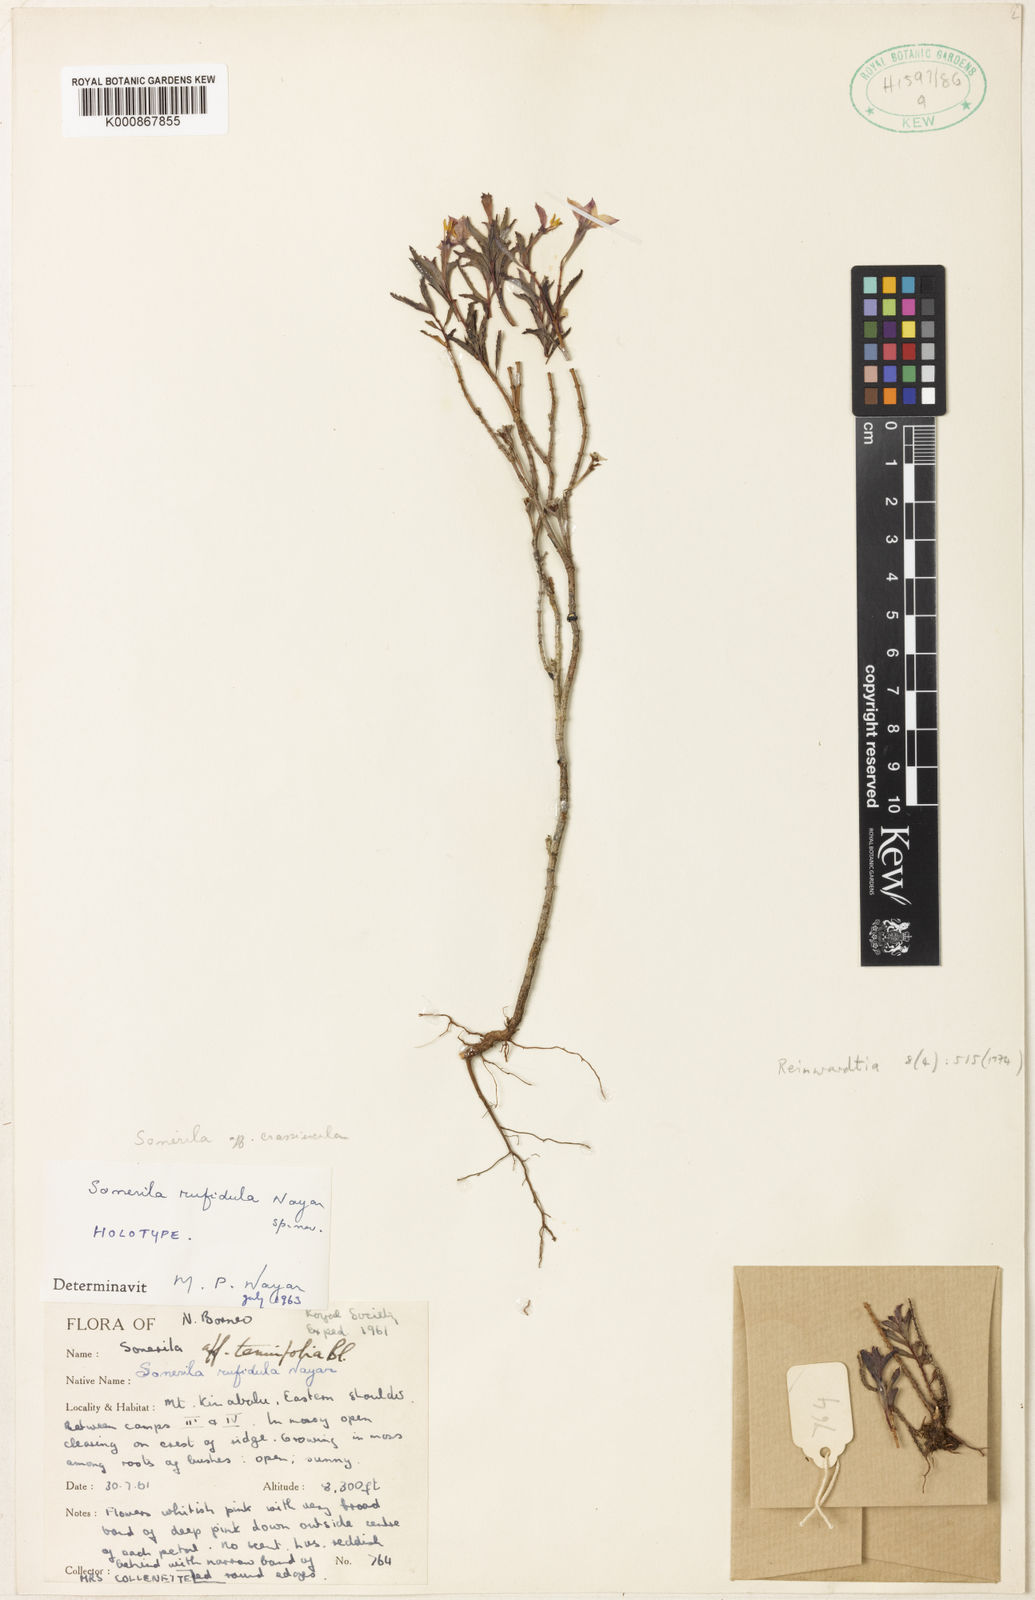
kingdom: Plantae
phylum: Tracheophyta
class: Magnoliopsida
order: Myrtales
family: Melastomataceae
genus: Sonerila
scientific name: Sonerila rufidula
